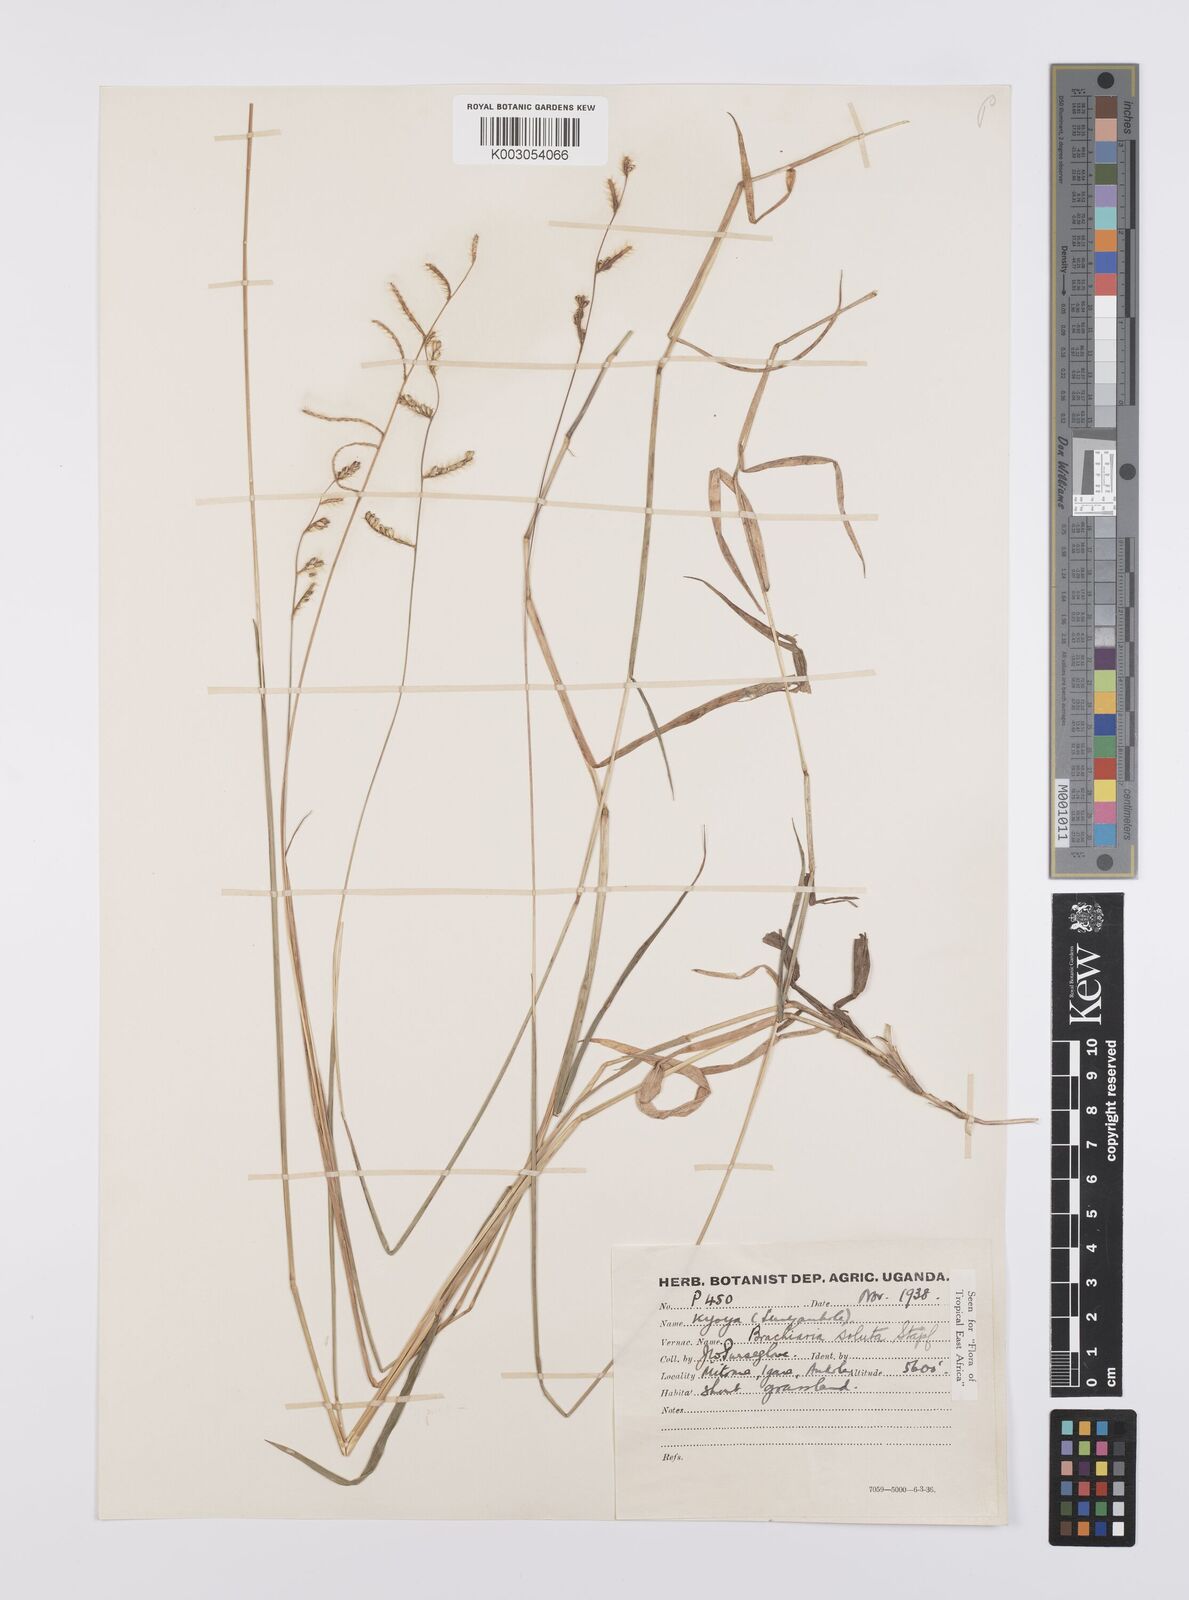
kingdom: Plantae
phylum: Tracheophyta
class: Liliopsida
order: Poales
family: Poaceae
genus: Urochloa
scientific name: Urochloa jubata
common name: Buffalograss
